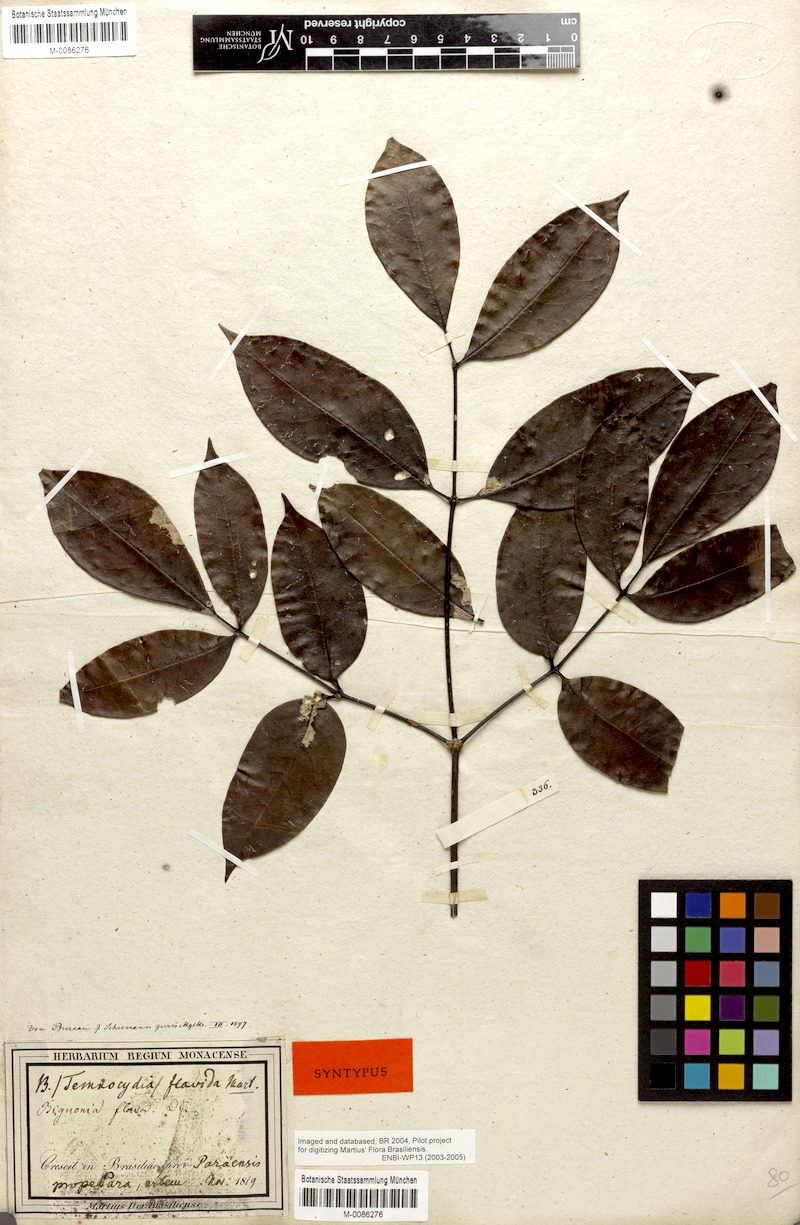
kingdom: Plantae
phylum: Tracheophyta
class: Magnoliopsida
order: Lamiales
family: Bignoniaceae
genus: Adenocalymma
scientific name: Adenocalymma neoflavidum
